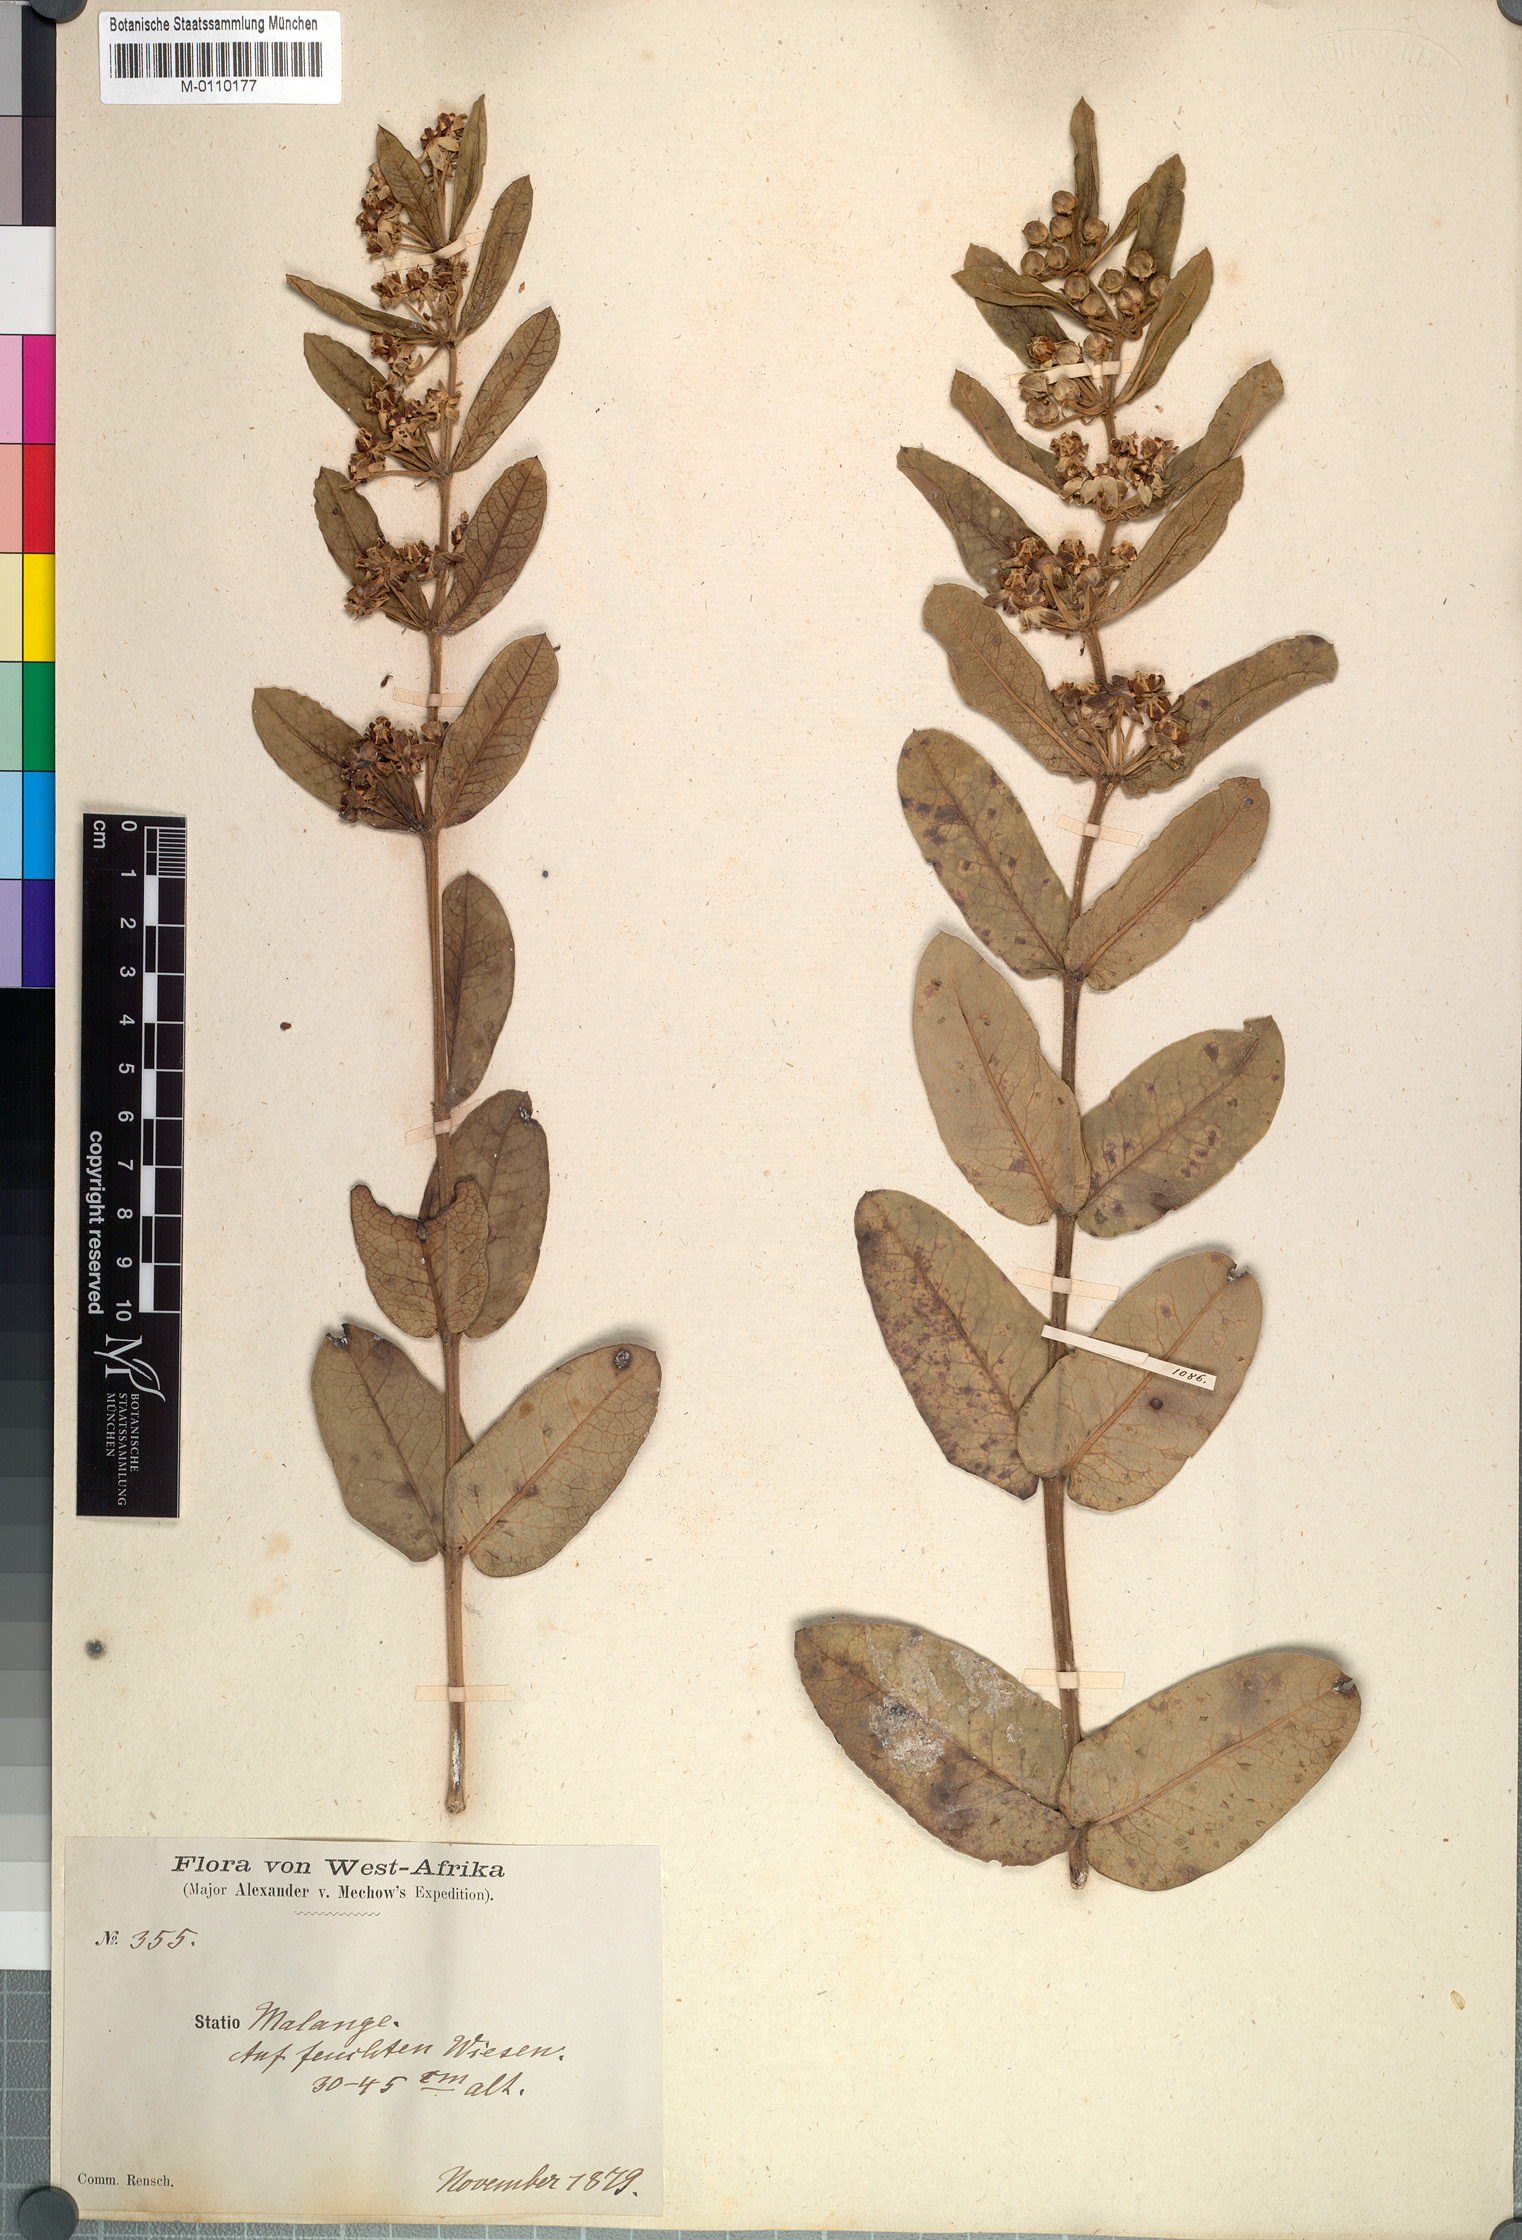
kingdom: Plantae
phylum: Tracheophyta
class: Magnoliopsida
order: Gentianales
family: Apocynaceae
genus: Xysmalobium
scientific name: Xysmalobium andongense
